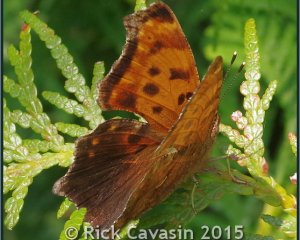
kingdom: Animalia
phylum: Arthropoda
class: Insecta
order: Lepidoptera
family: Nymphalidae
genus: Polygonia
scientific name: Polygonia comma
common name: Eastern Comma
